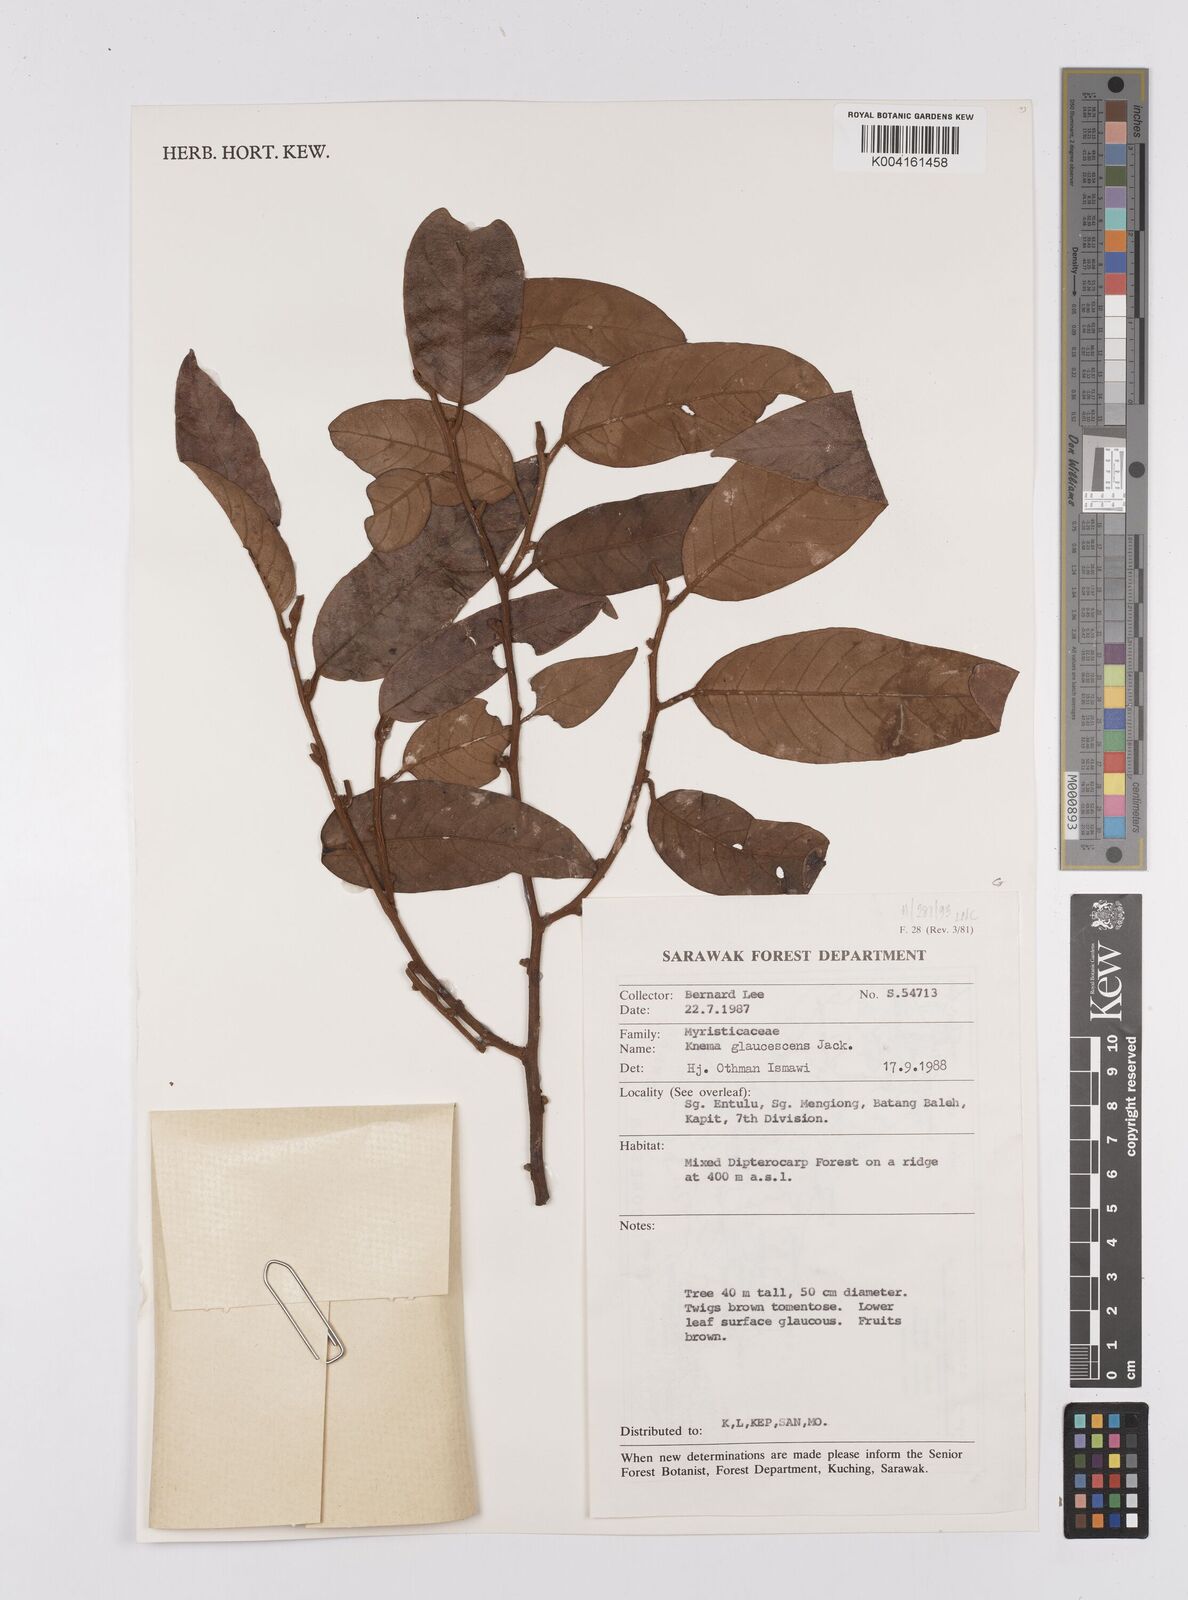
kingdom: Plantae
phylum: Tracheophyta
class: Magnoliopsida
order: Magnoliales
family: Myristicaceae
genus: Knema
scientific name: Knema
